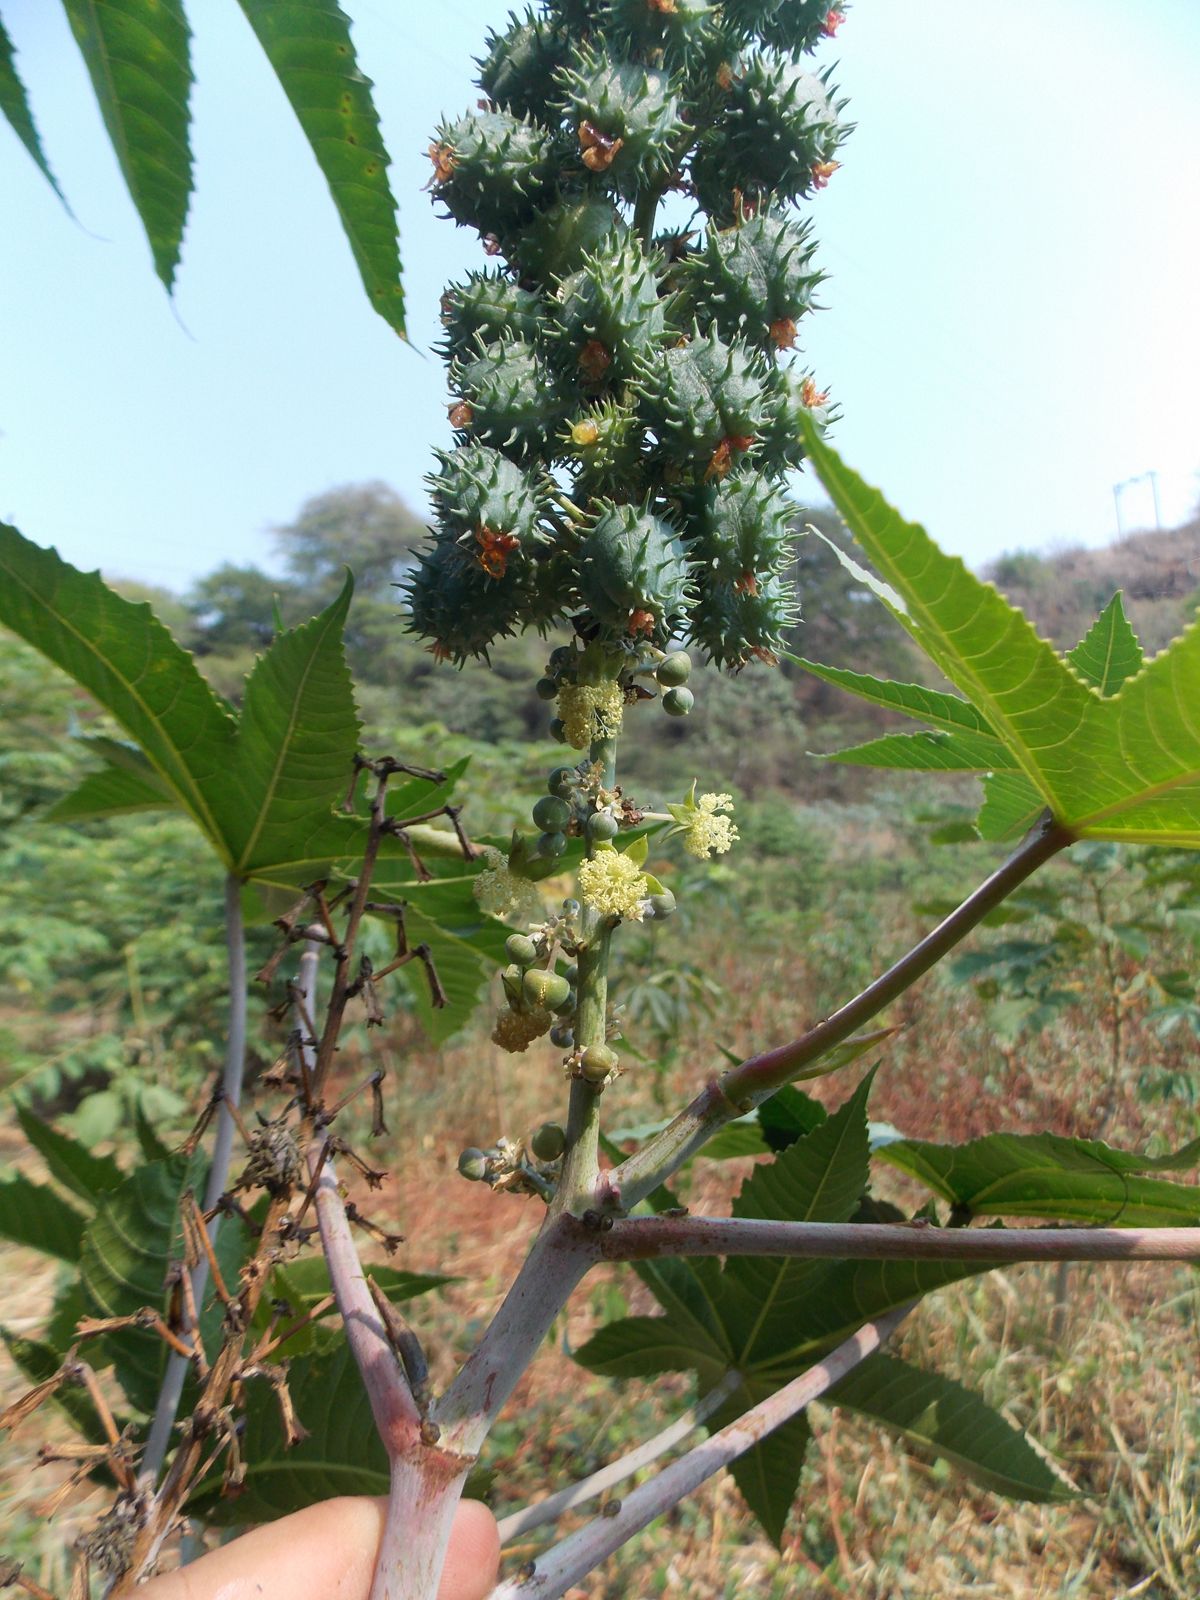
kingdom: Plantae
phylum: Tracheophyta
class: Magnoliopsida
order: Malpighiales
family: Euphorbiaceae
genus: Ricinus
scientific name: Ricinus communis
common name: Castor-oil-plant
